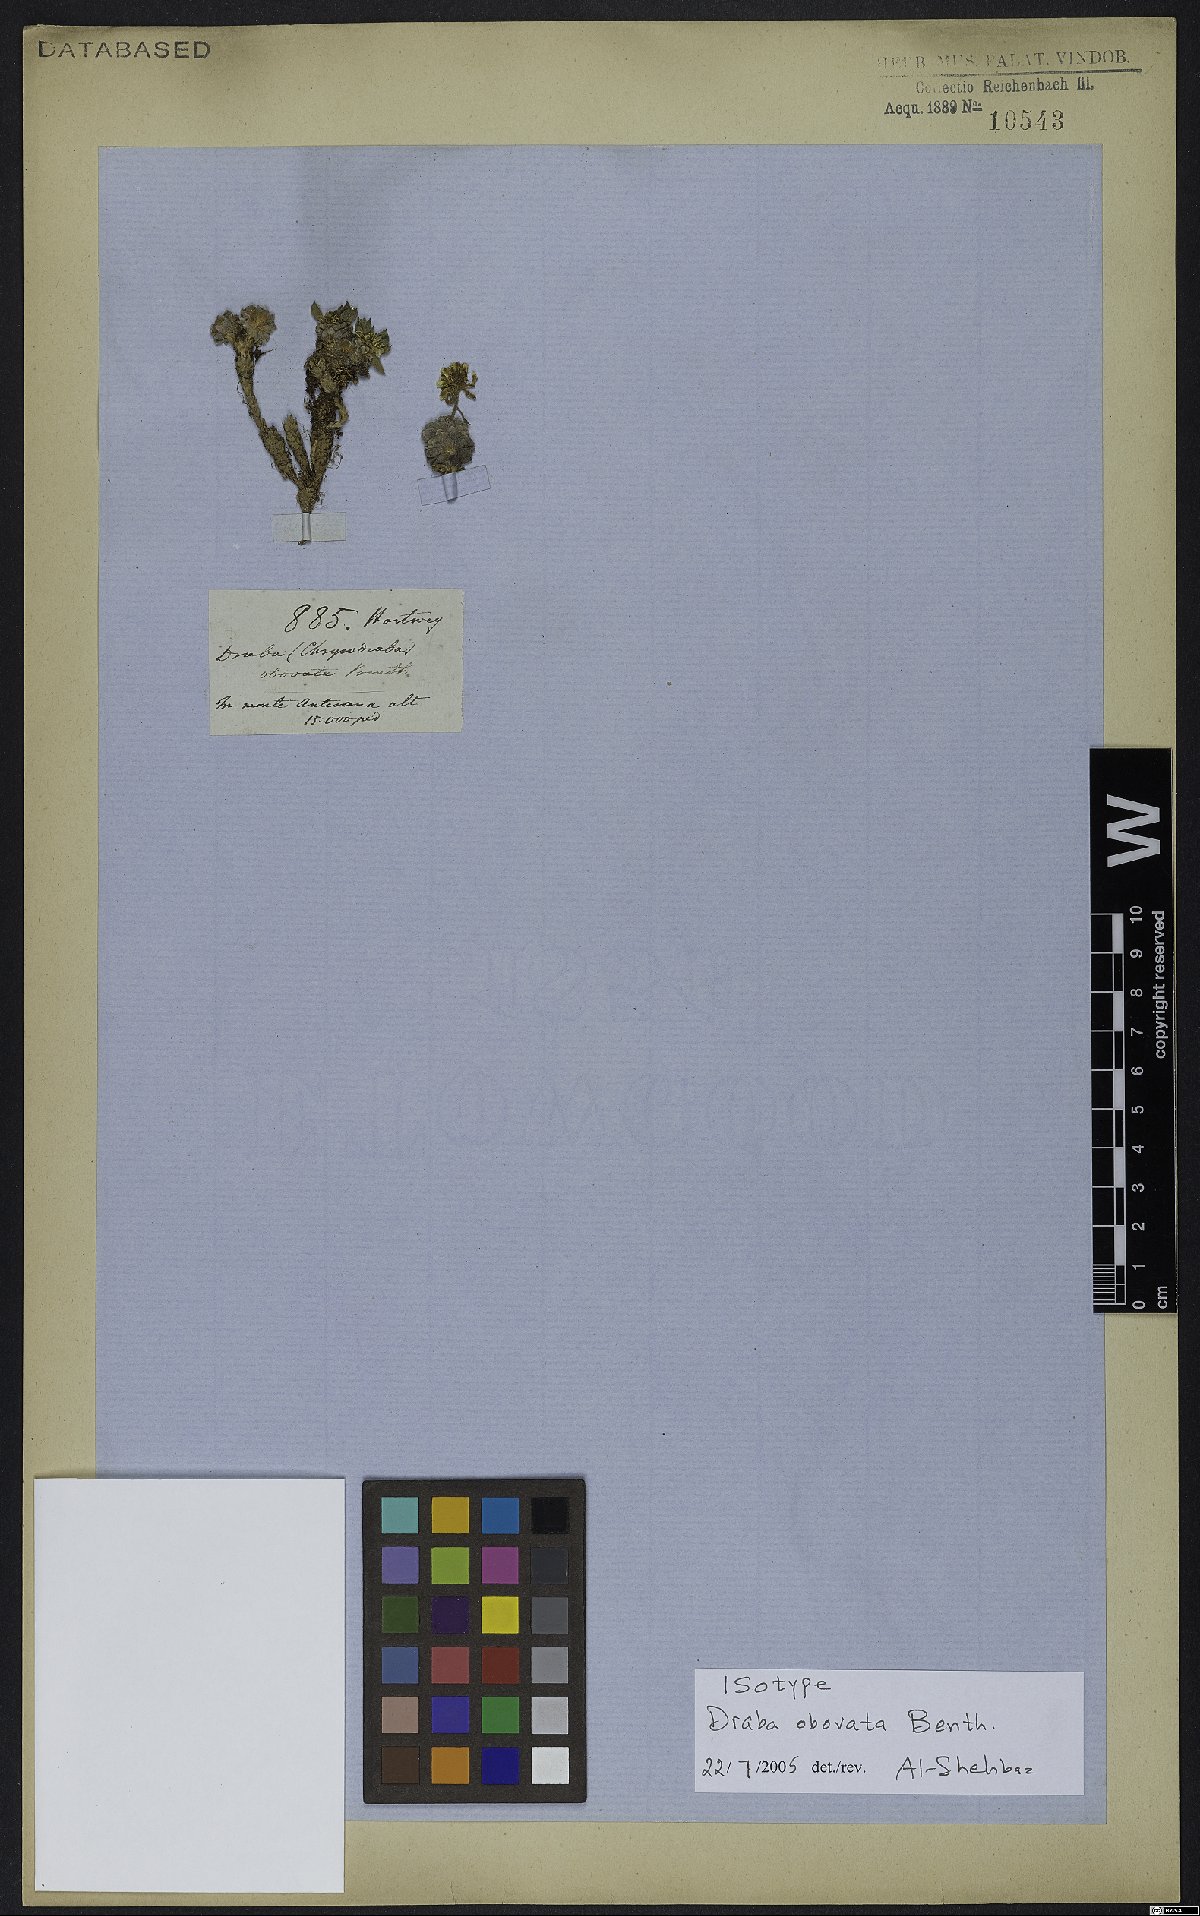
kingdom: Plantae
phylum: Tracheophyta
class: Magnoliopsida
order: Brassicales
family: Brassicaceae
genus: Draba
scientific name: Draba obovata
